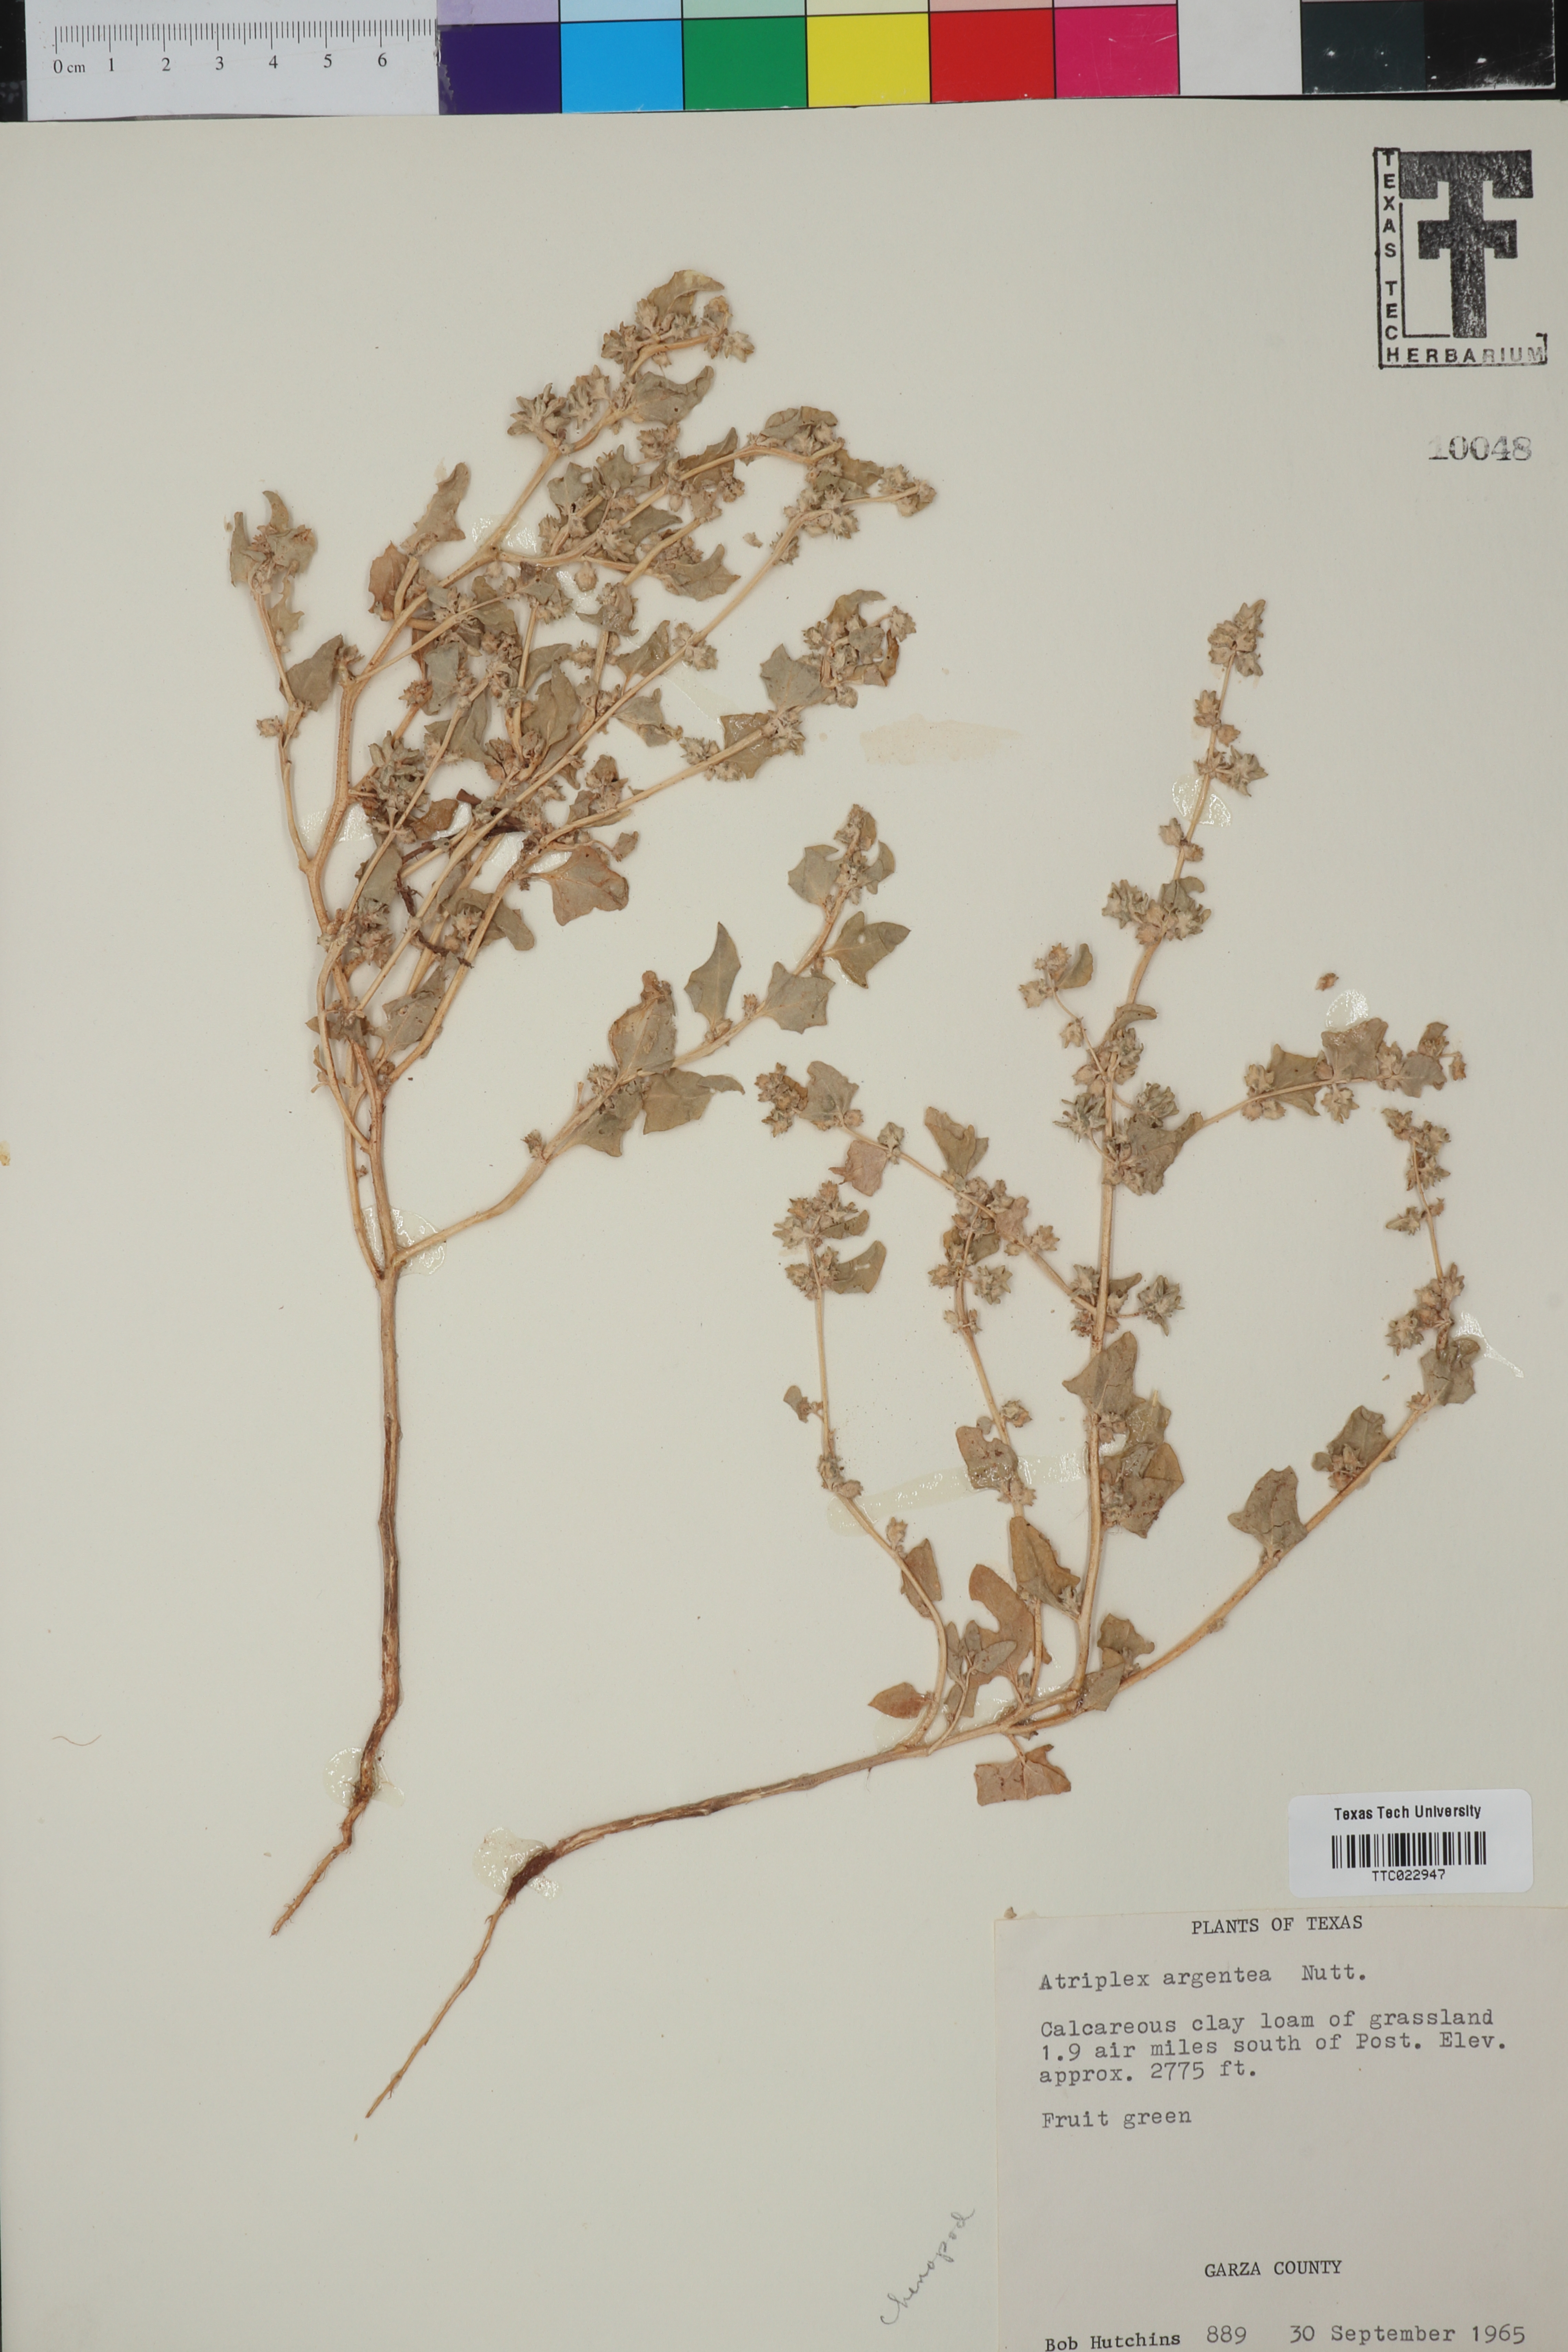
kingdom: Plantae
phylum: Tracheophyta
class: Magnoliopsida
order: Caryophyllales
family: Amaranthaceae
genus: Atriplex
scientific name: Atriplex argentea
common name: Silverscale
